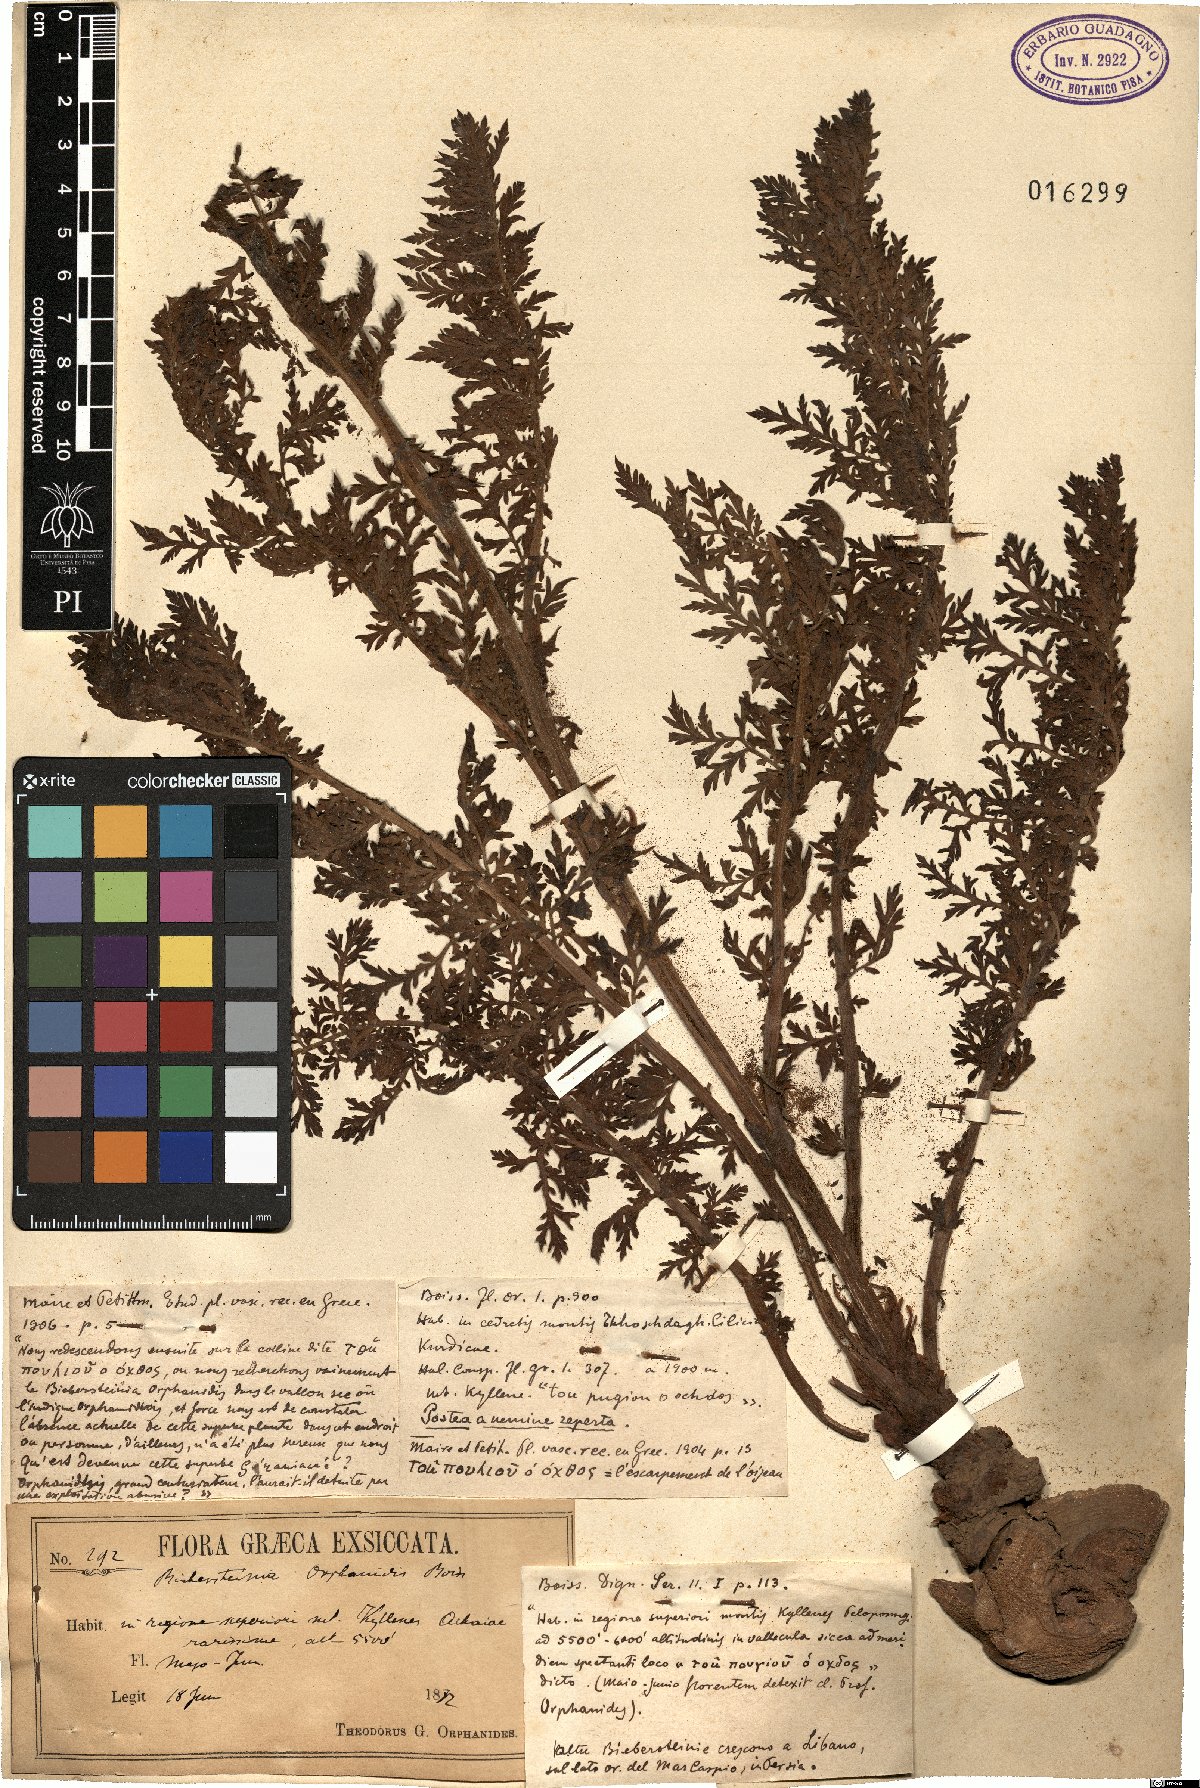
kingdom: Plantae
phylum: Tracheophyta
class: Magnoliopsida
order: Sapindales
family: Biebersteiniaceae
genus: Biebersteinia
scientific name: Biebersteinia orphanidis
